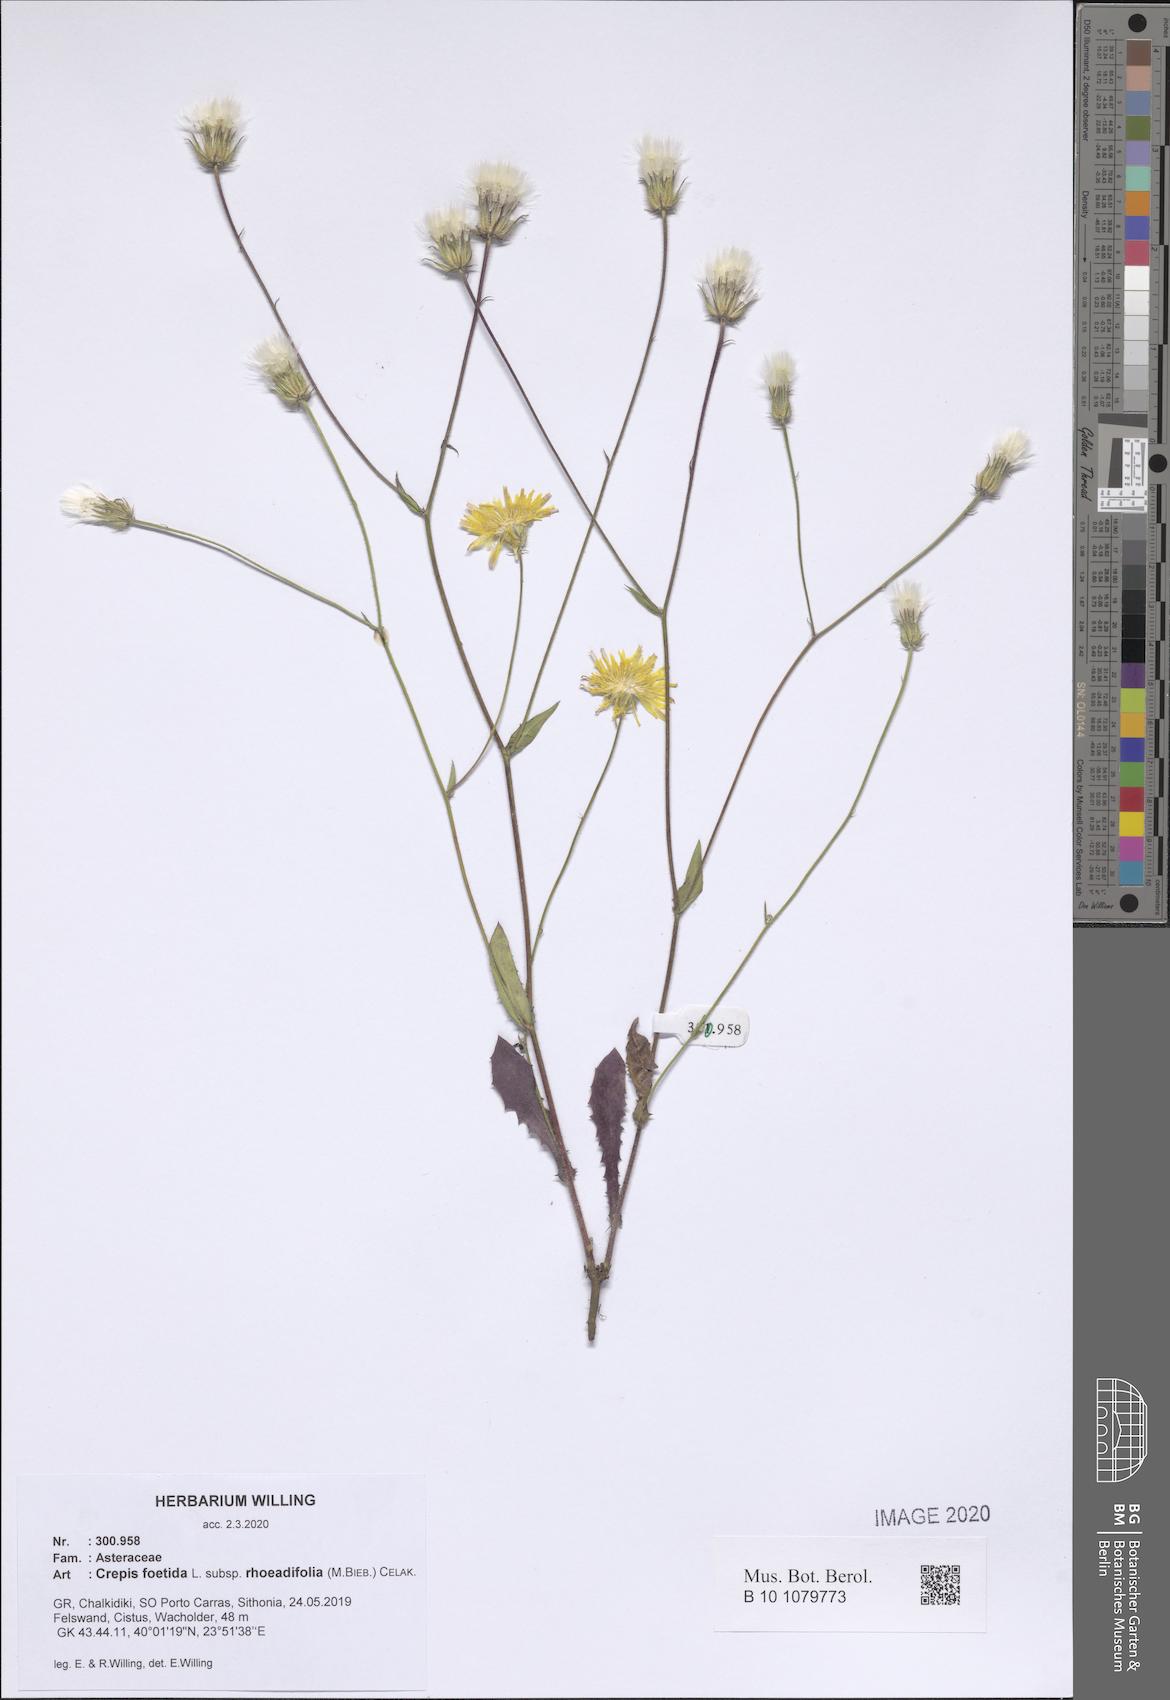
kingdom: Plantae
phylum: Tracheophyta
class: Magnoliopsida
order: Asterales
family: Asteraceae
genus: Crepis
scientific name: Crepis foetida
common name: Stinking hawk's-beard
